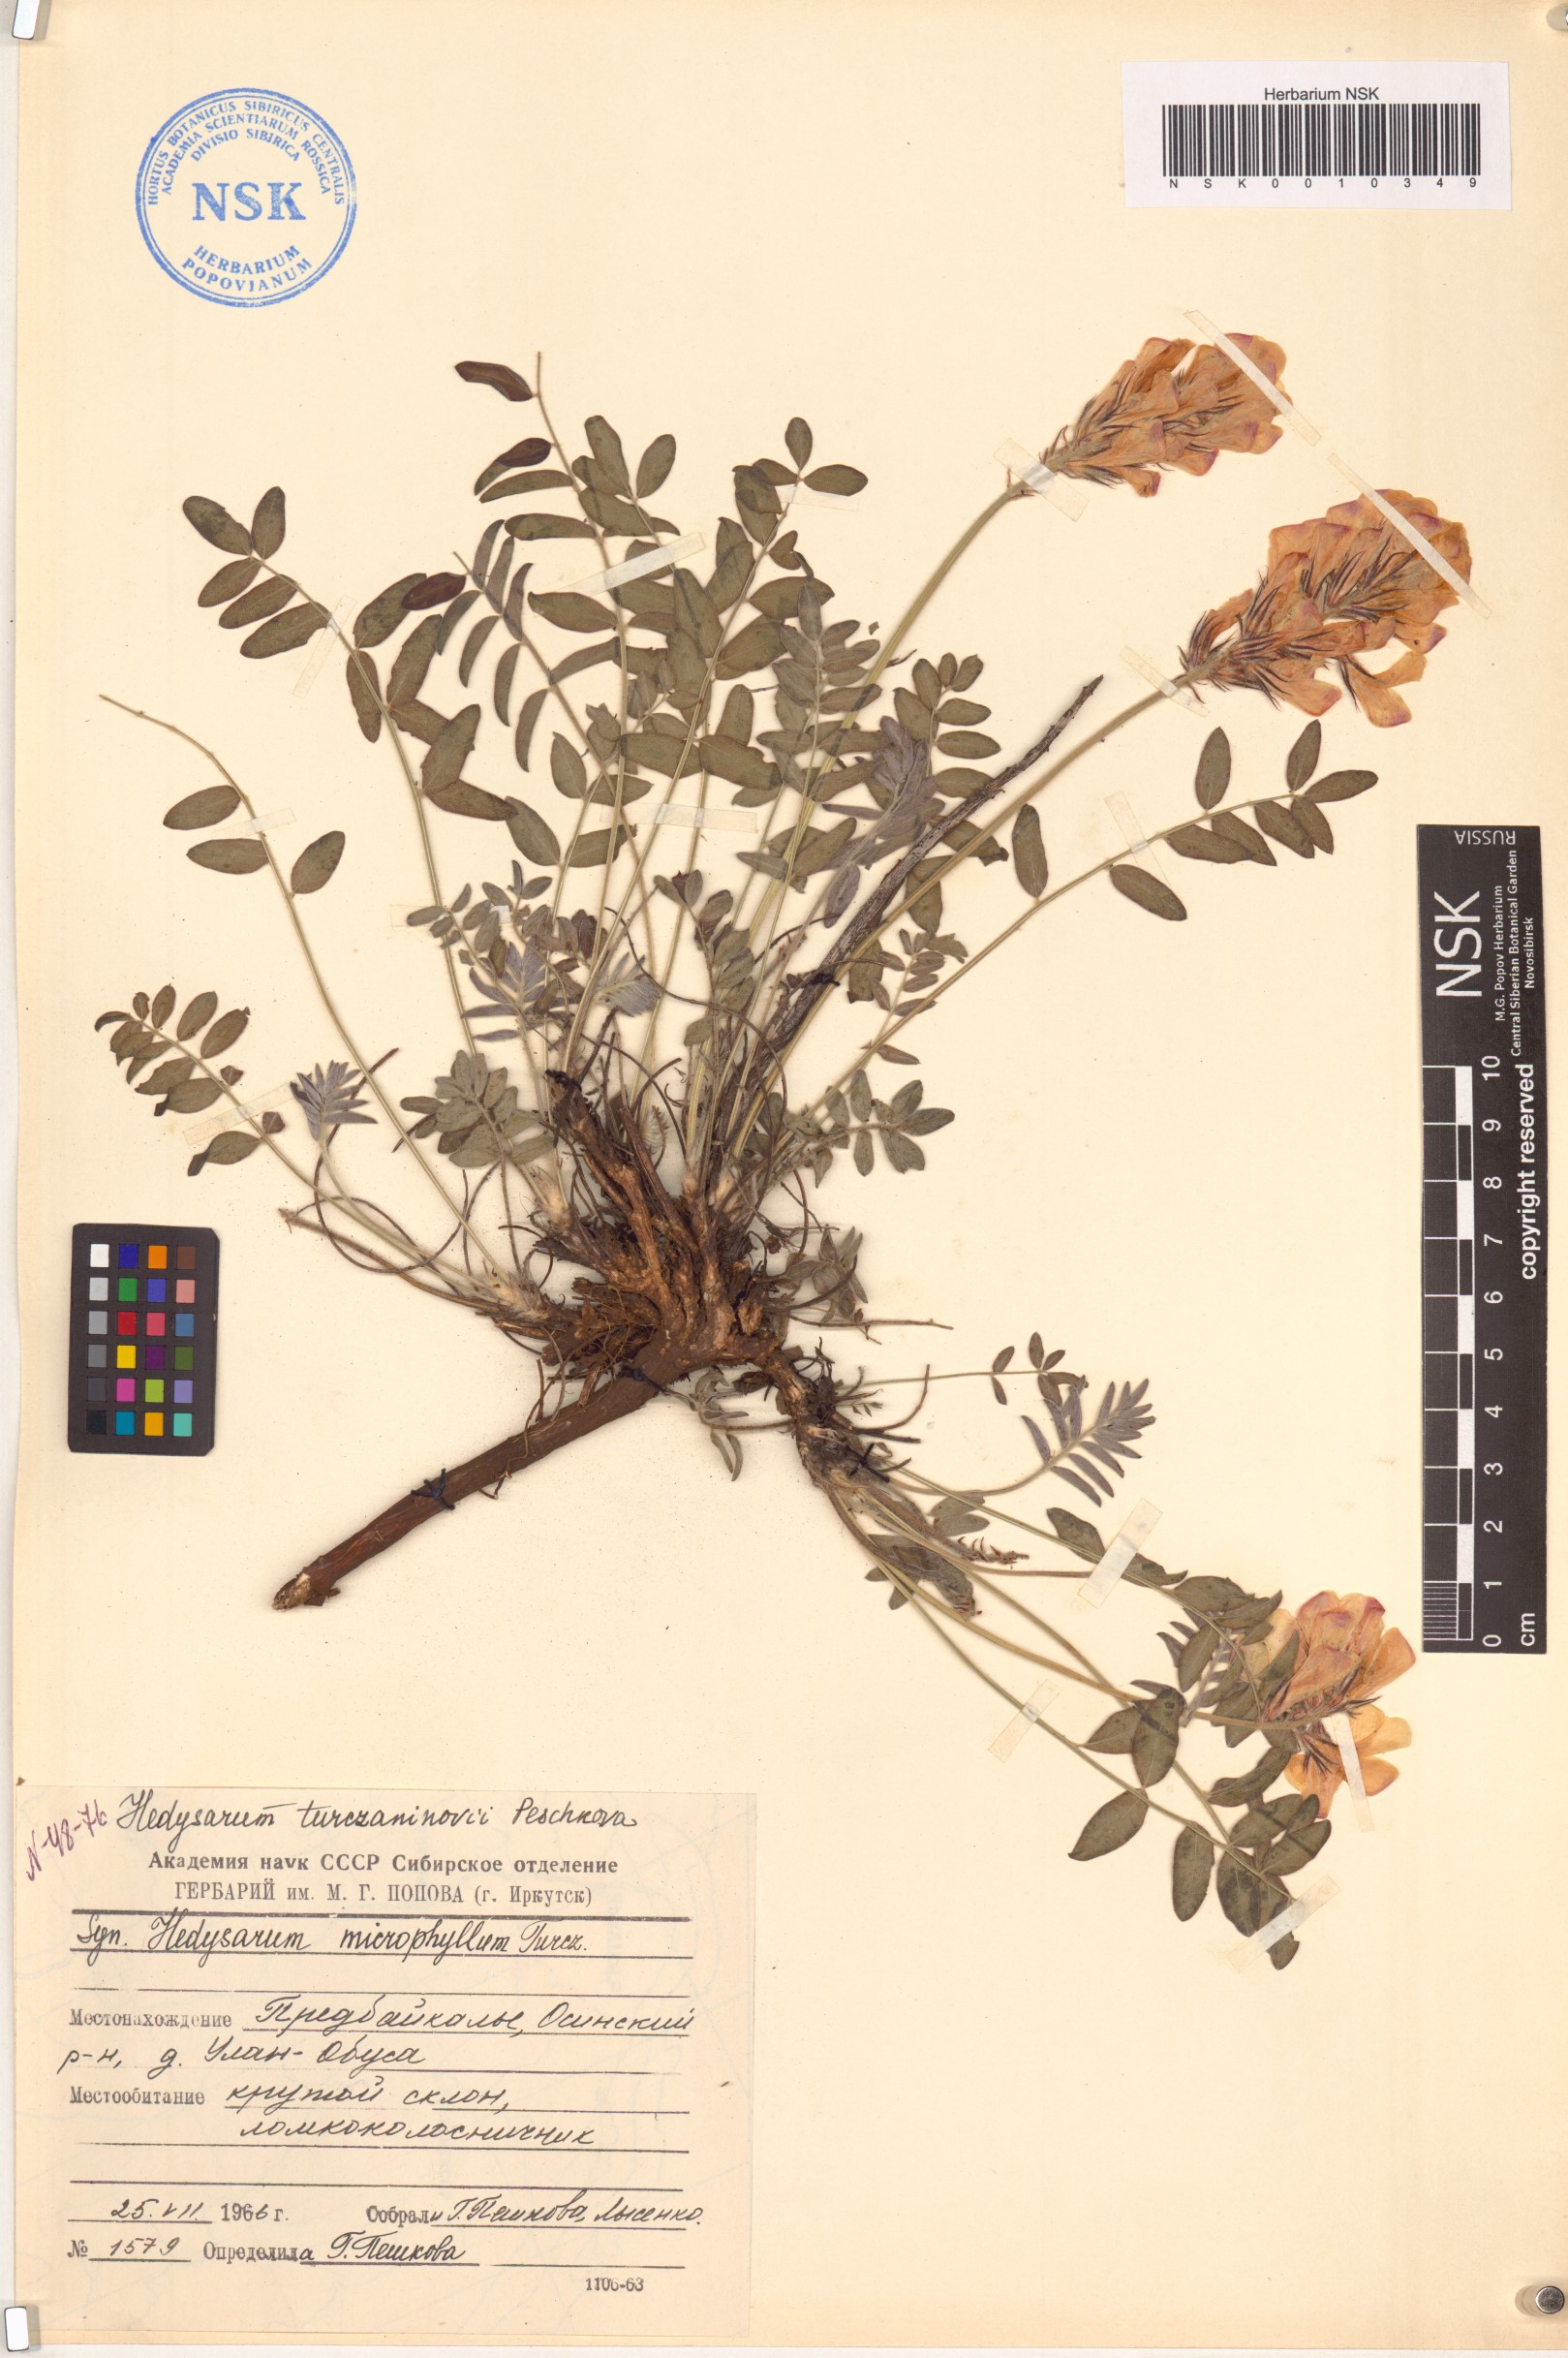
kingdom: Plantae
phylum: Tracheophyta
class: Magnoliopsida
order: Fabales
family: Fabaceae
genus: Hedysarum
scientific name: Hedysarum turczaninovii
